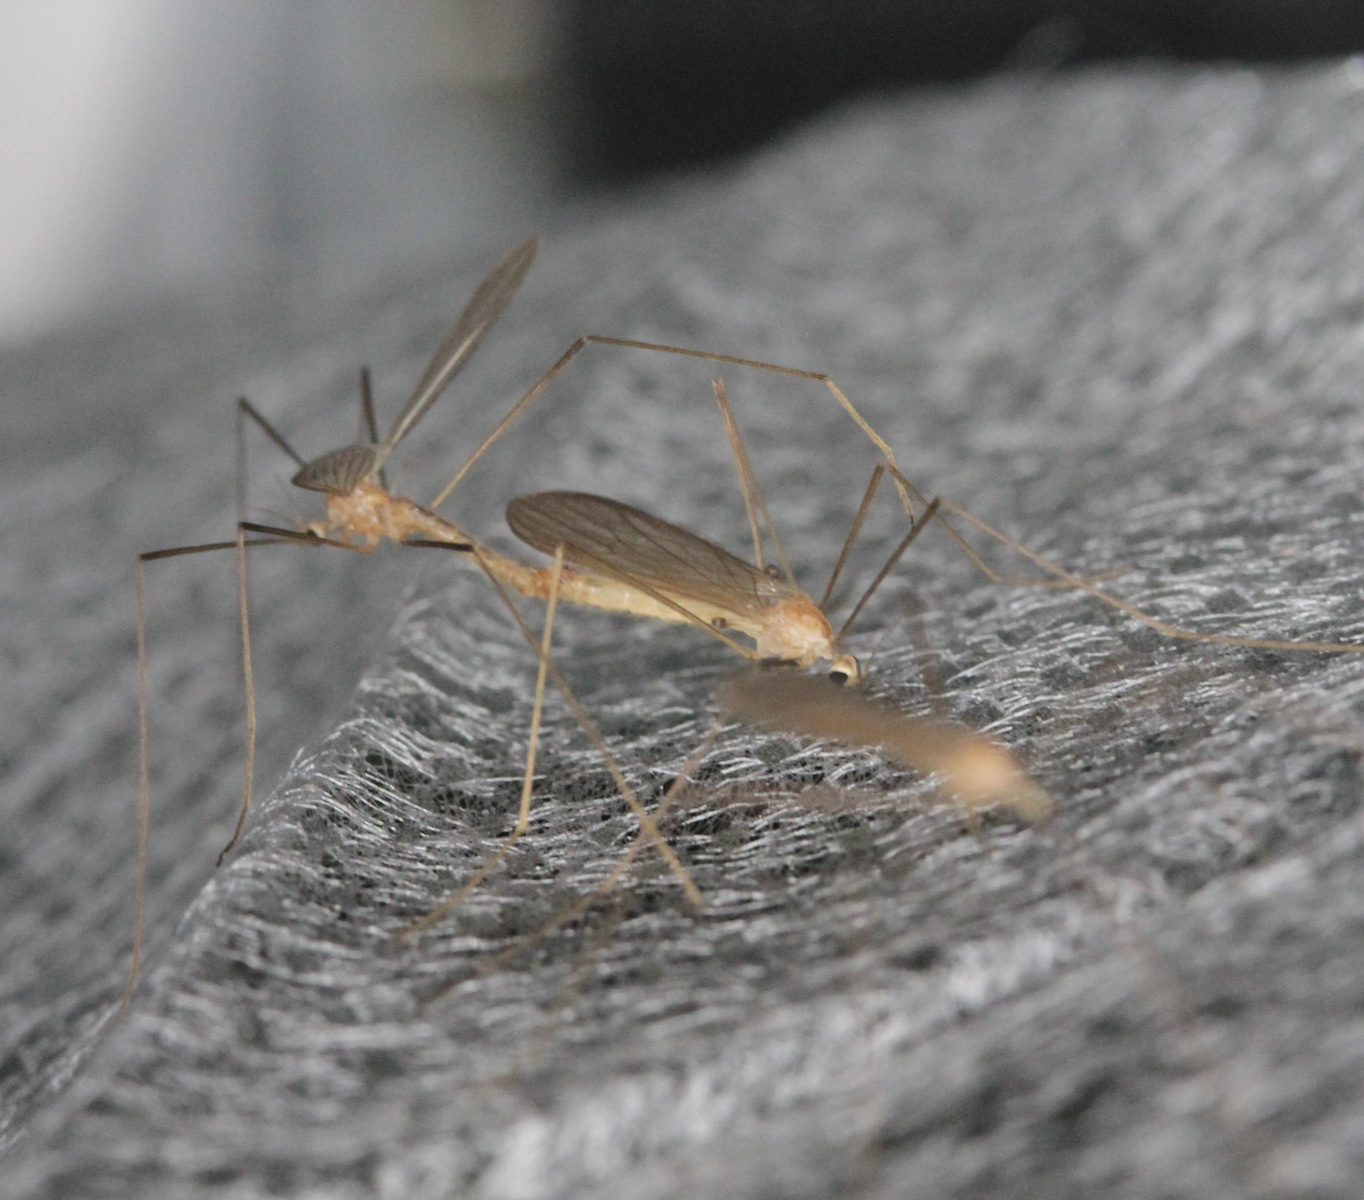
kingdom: Animalia
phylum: Arthropoda
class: Insecta
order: Diptera
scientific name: Diptera
